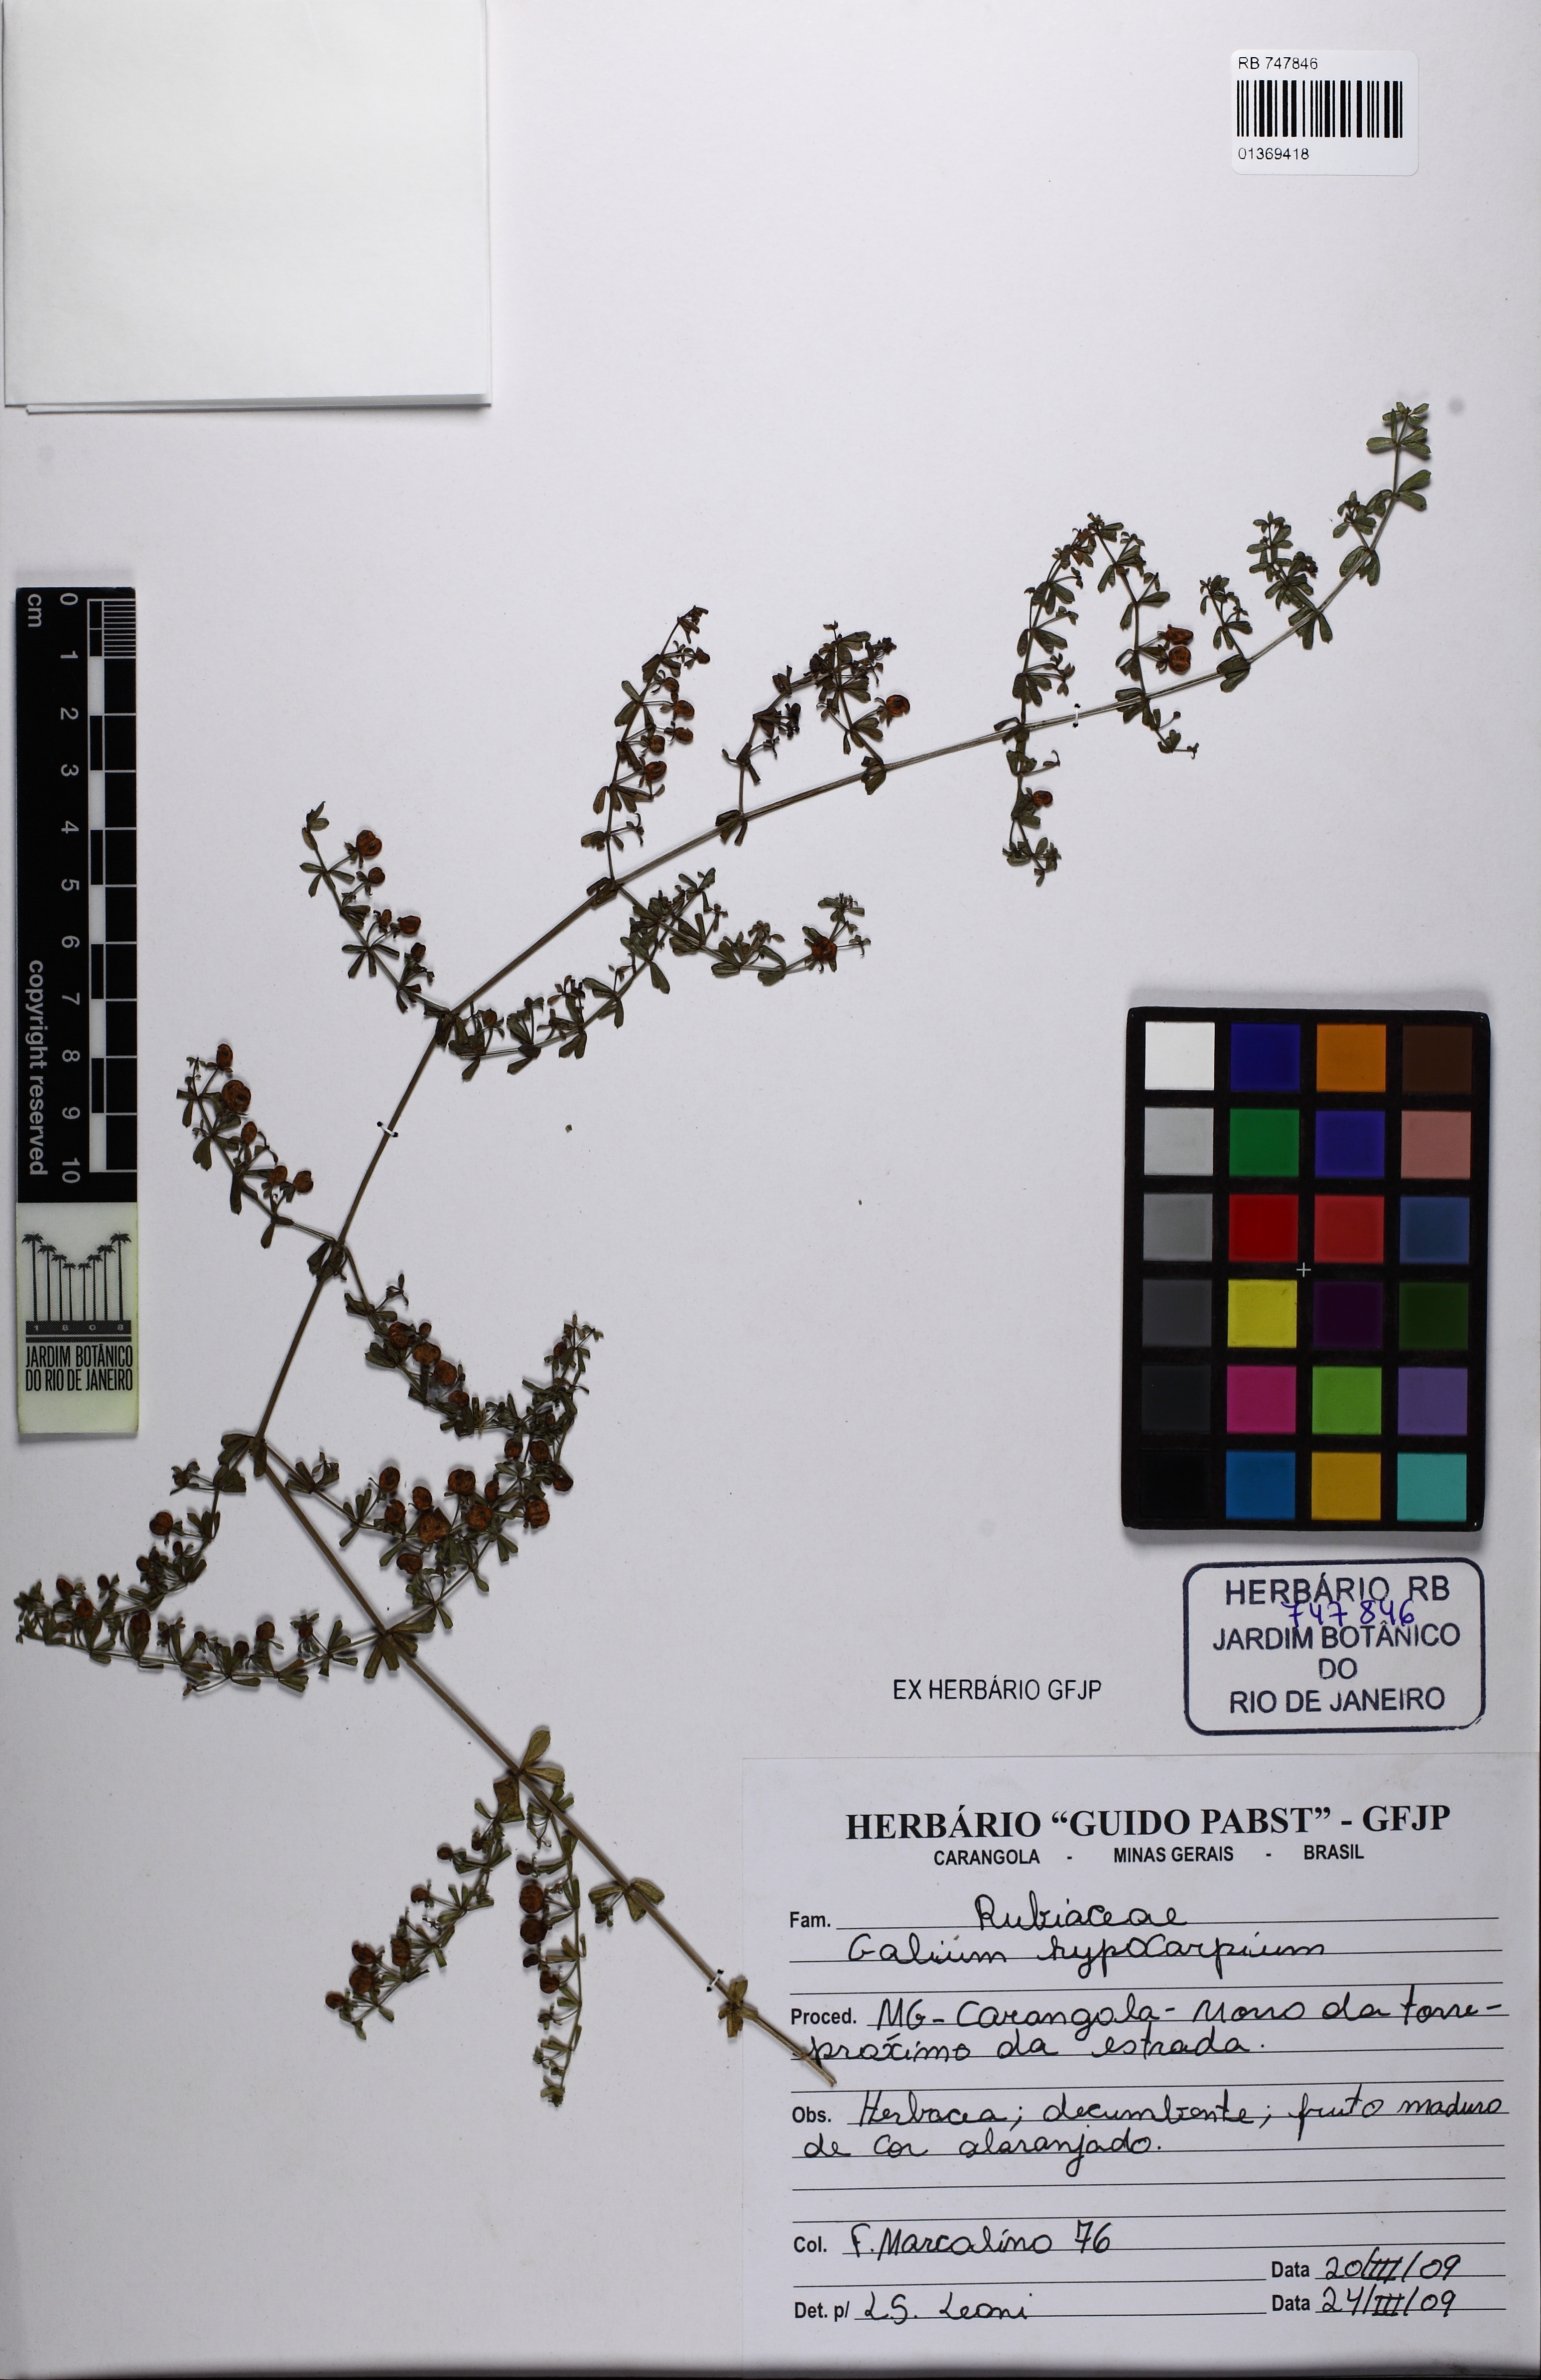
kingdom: Plantae
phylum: Tracheophyta
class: Magnoliopsida
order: Gentianales
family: Rubiaceae
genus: Galium
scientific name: Galium hypocarpium
